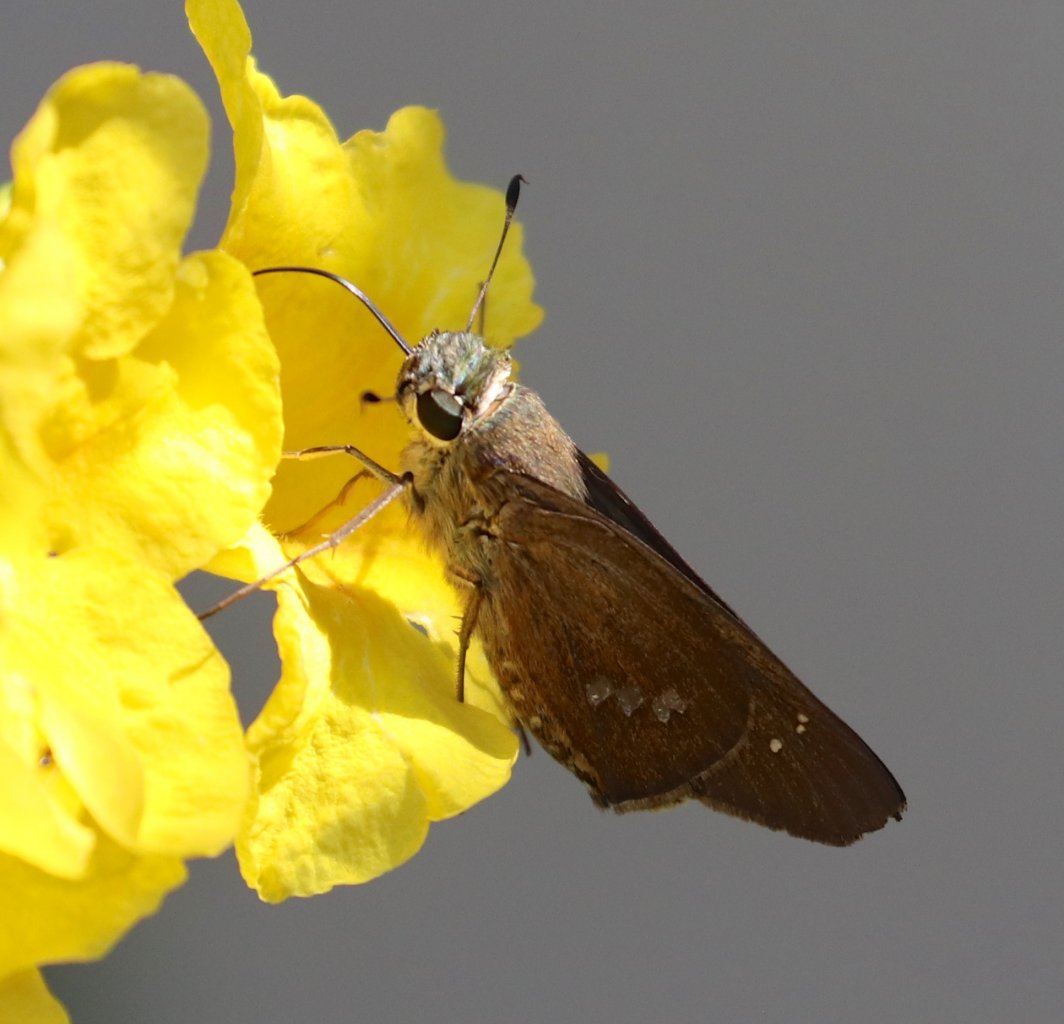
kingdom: Animalia
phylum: Arthropoda
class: Insecta
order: Lepidoptera
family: Hesperiidae
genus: Calpodes
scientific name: Calpodes ethlius
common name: Brazilian Skipper
